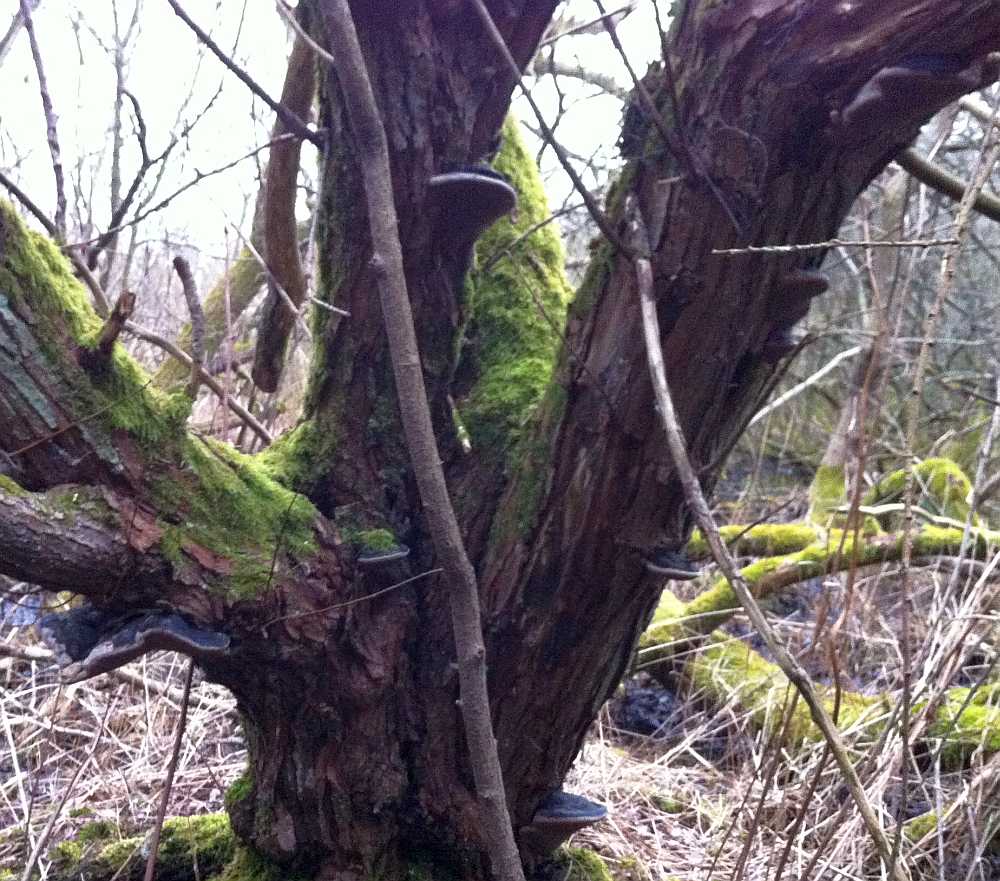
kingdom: Fungi
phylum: Basidiomycota
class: Agaricomycetes
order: Hymenochaetales
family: Hymenochaetaceae
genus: Phellinus
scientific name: Phellinus igniarius
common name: almindelig ildporesvamp
